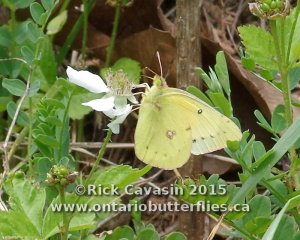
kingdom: Animalia
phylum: Arthropoda
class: Insecta
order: Lepidoptera
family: Pieridae
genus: Colias
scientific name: Colias eurytheme
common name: Orange Sulphur
